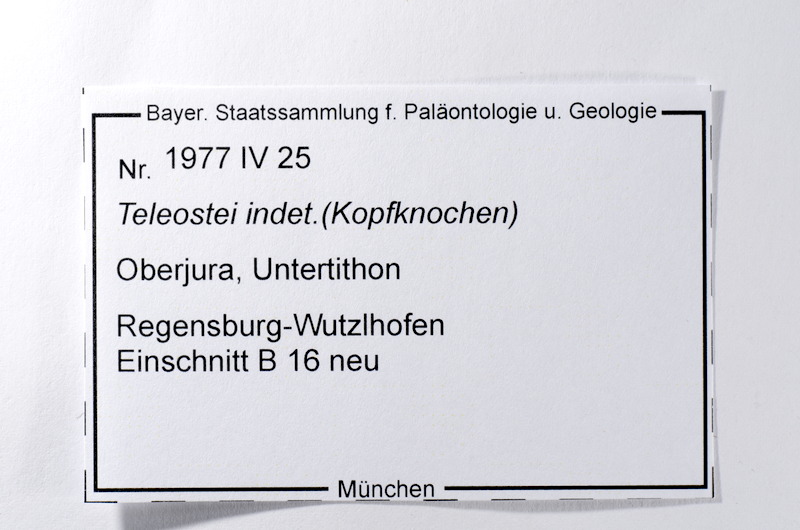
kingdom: Animalia
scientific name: Animalia
